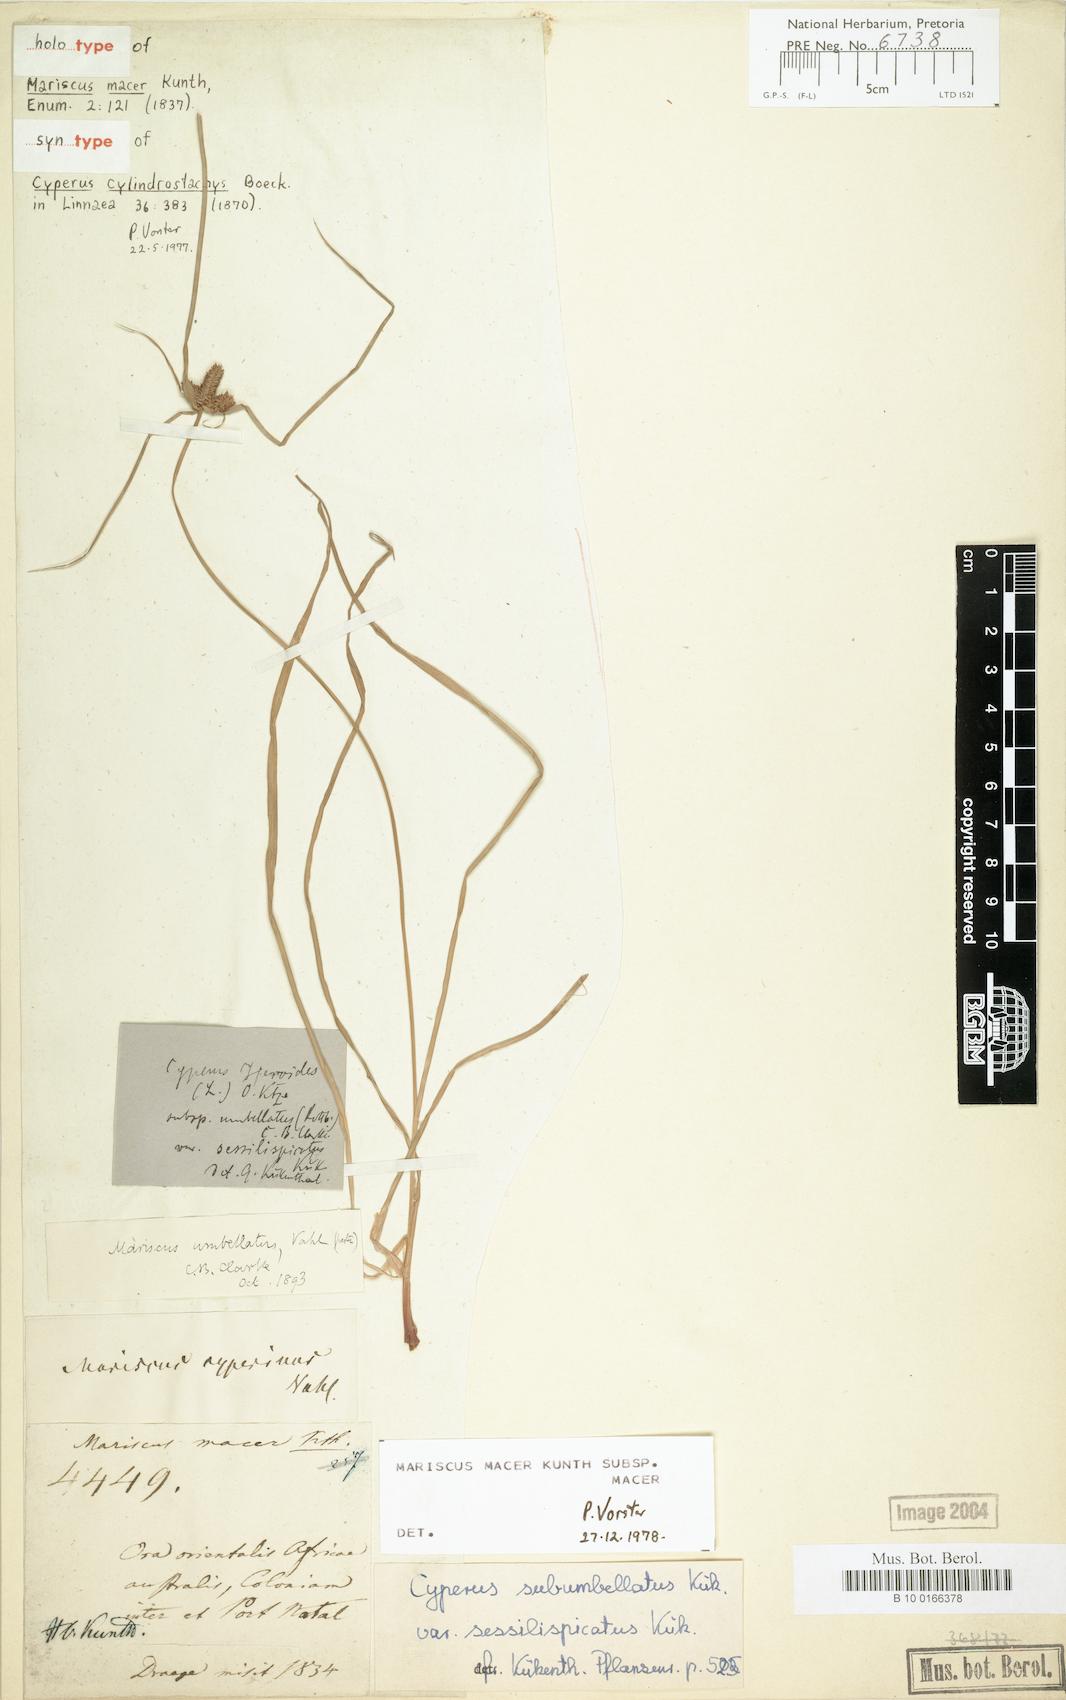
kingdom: Plantae
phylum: Tracheophyta
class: Liliopsida
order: Poales
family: Cyperaceae
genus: Cyperus
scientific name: Cyperus pseudoflavus
